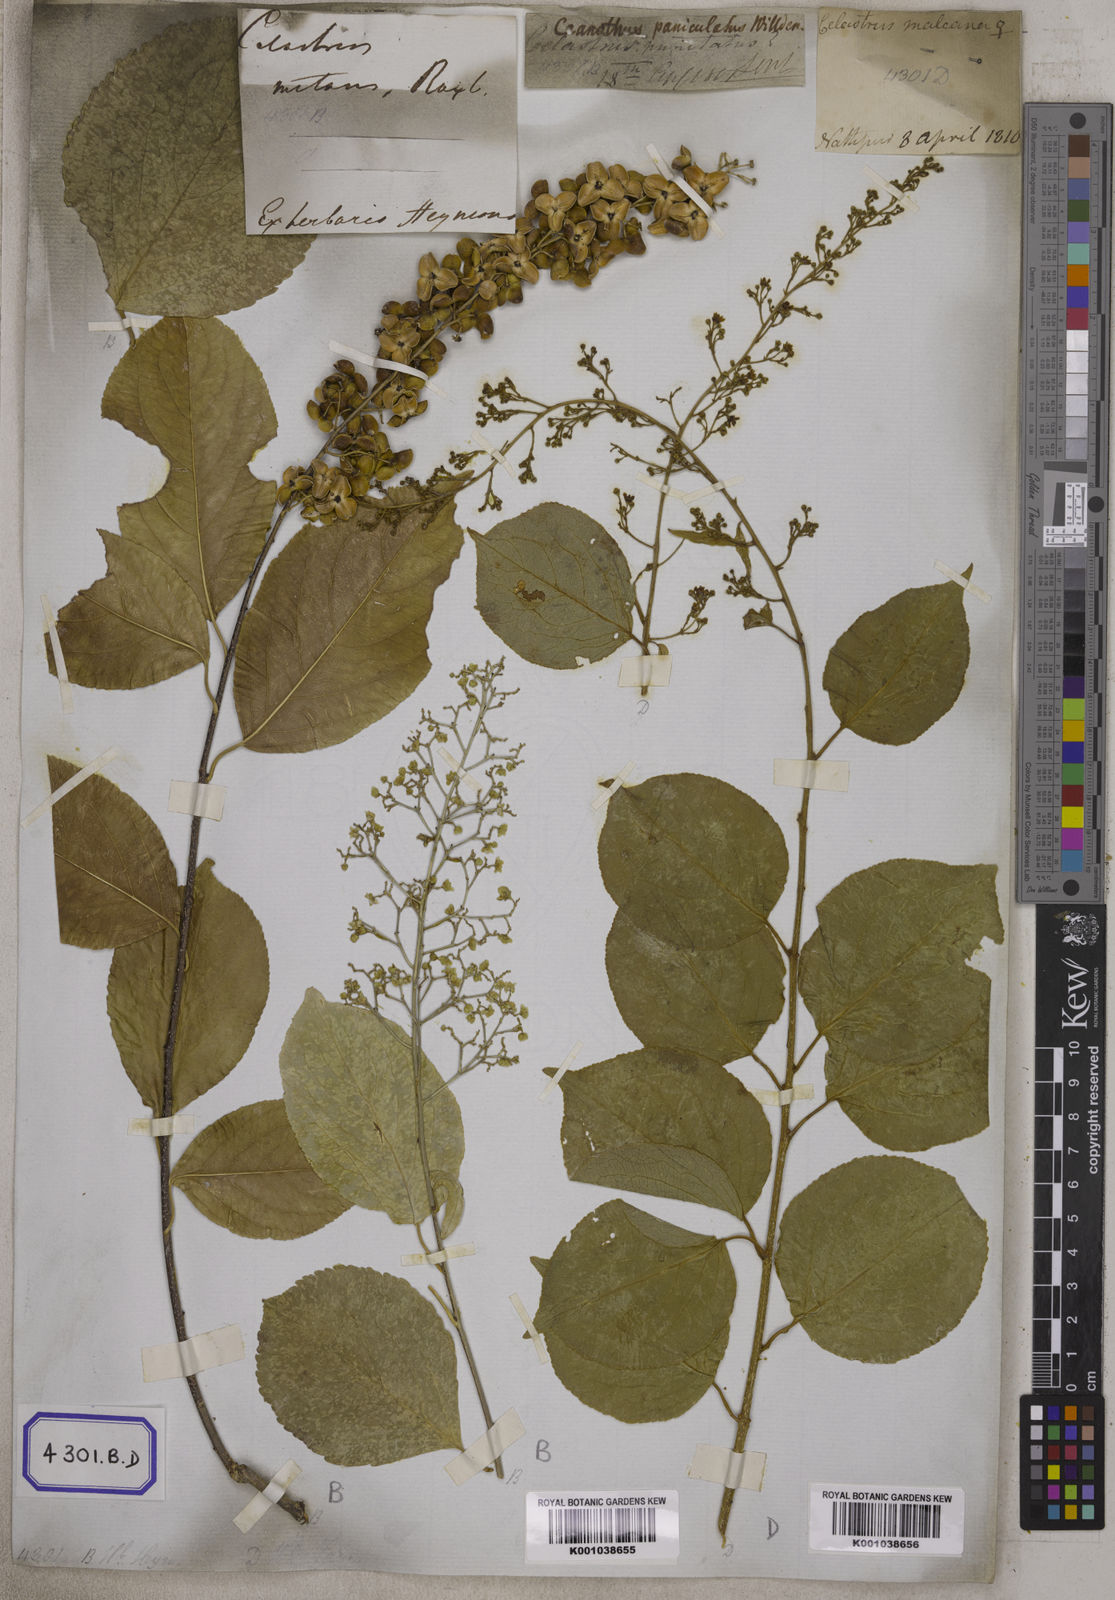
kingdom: Plantae
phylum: Tracheophyta
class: Magnoliopsida
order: Celastrales
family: Celastraceae
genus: Celastrus
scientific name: Celastrus paniculatus
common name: Oriental bittersweet; staff vine
